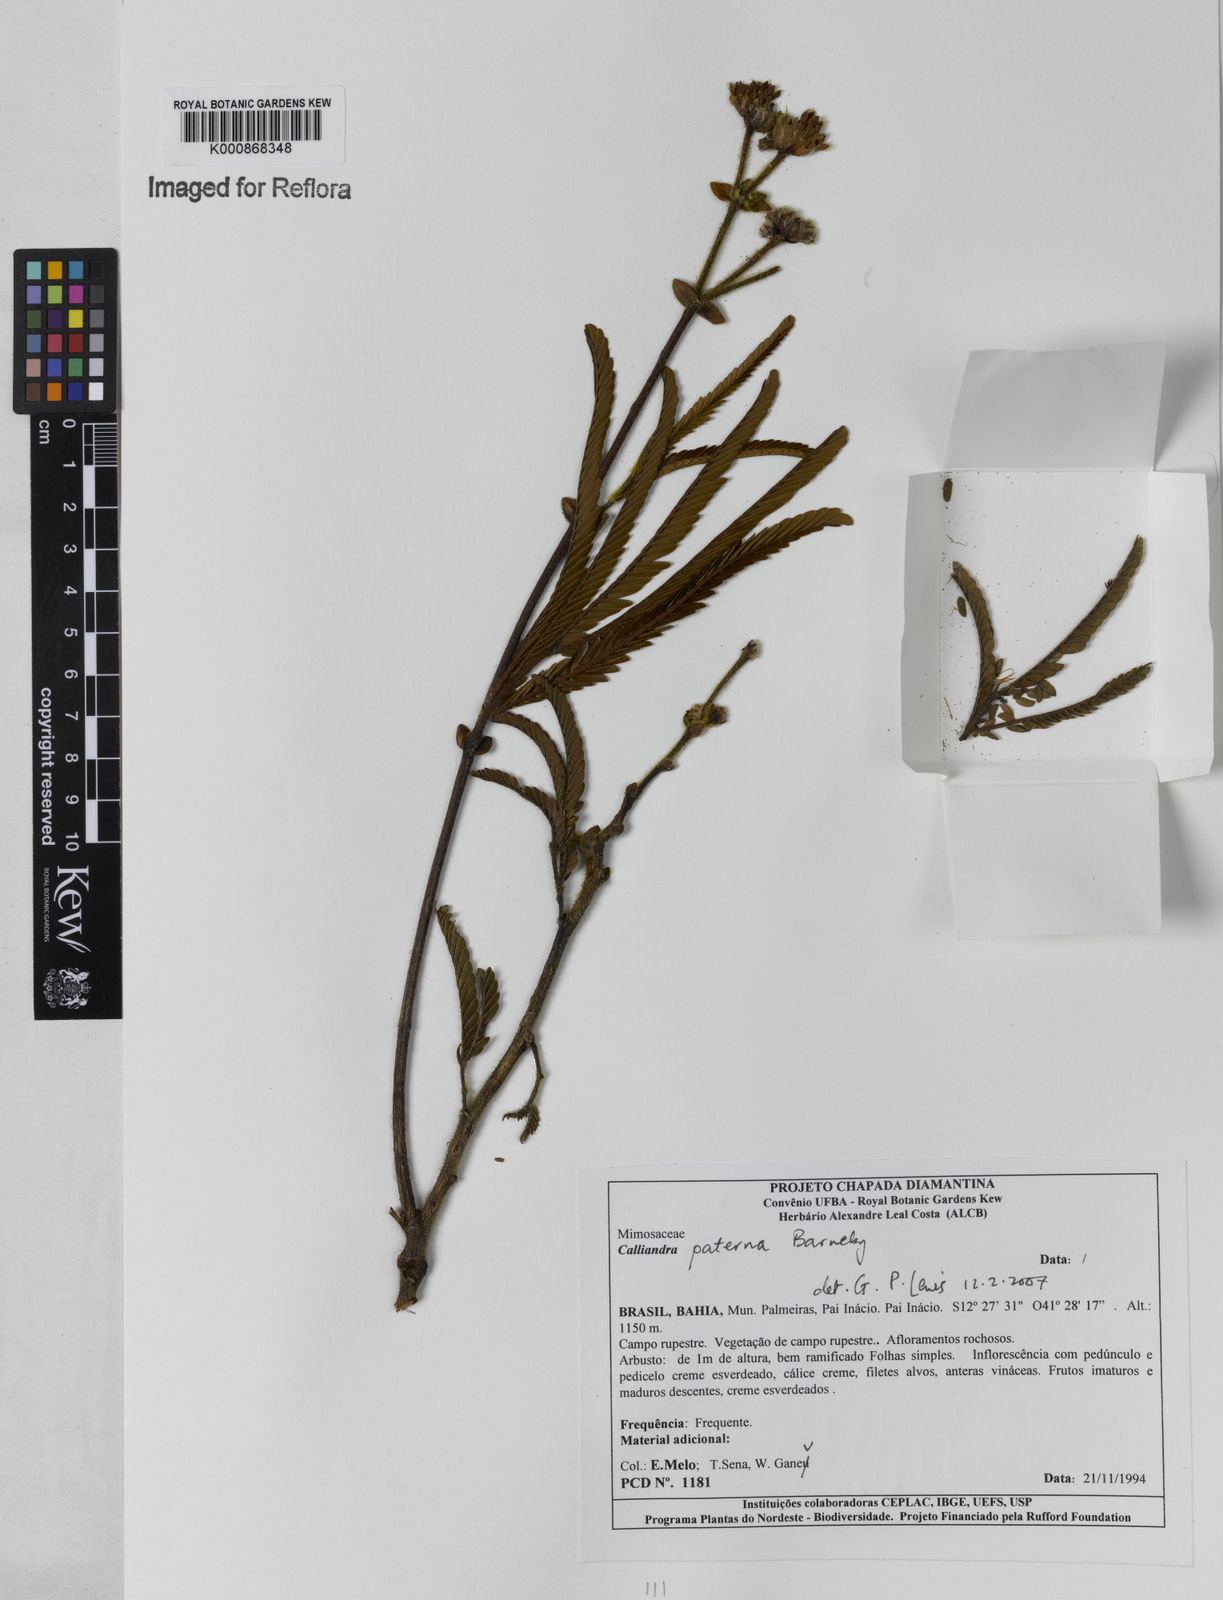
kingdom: Plantae
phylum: Tracheophyta
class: Magnoliopsida
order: Fabales
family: Fabaceae
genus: Calliandra
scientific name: Calliandra paterna
